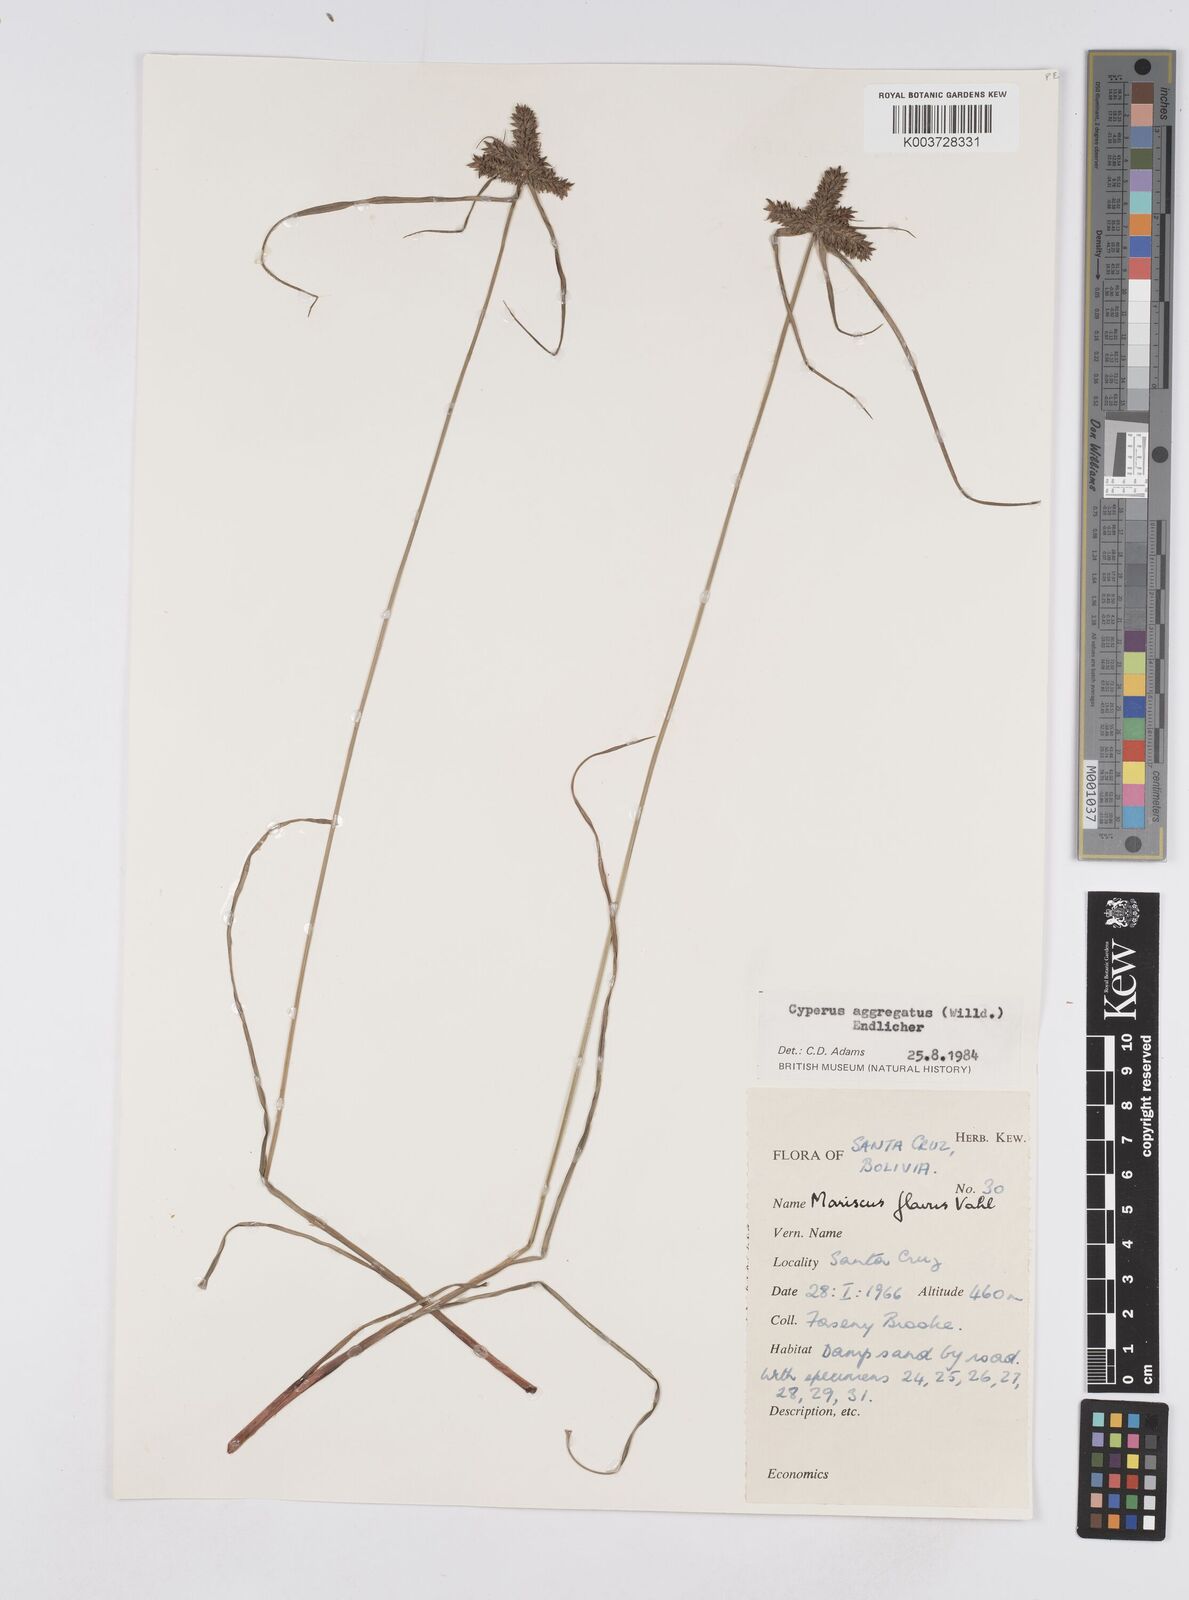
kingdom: Plantae
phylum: Tracheophyta
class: Liliopsida
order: Poales
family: Cyperaceae
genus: Cyperus
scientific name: Cyperus aggregatus
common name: Inflatedscale flatsedge
